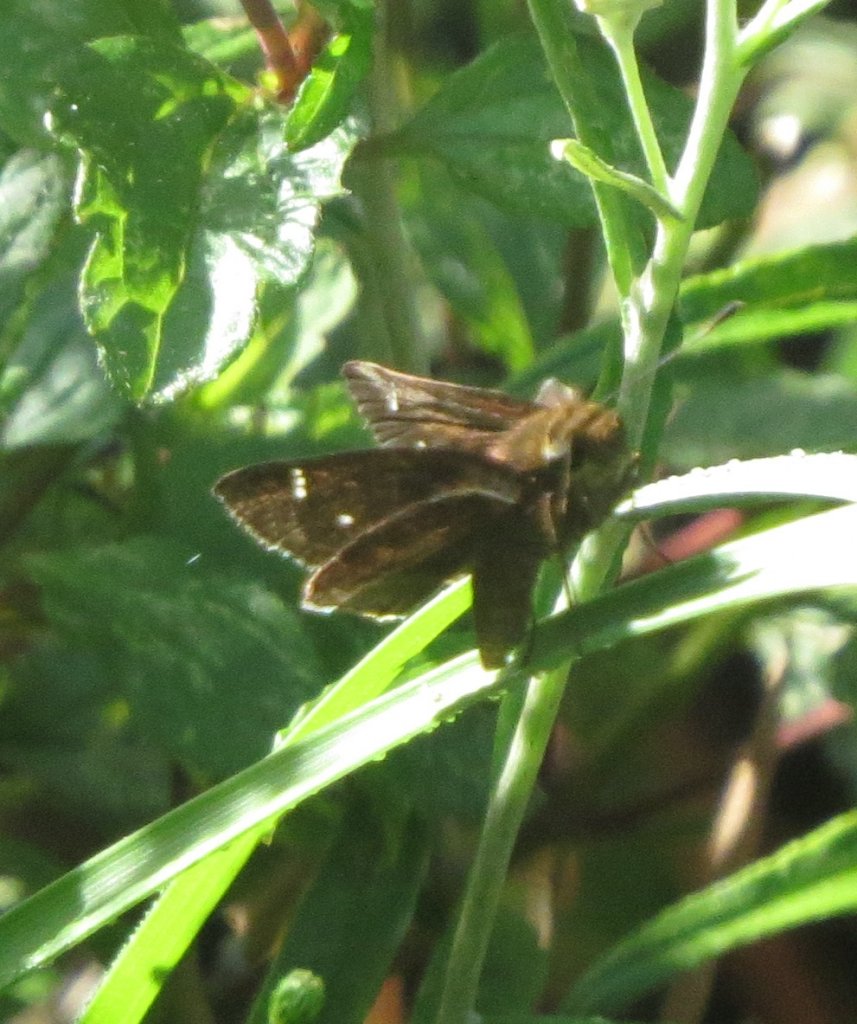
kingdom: Animalia
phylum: Arthropoda
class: Insecta
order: Lepidoptera
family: Hesperiidae
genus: Lerema
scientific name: Lerema accius
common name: Clouded Skipper
